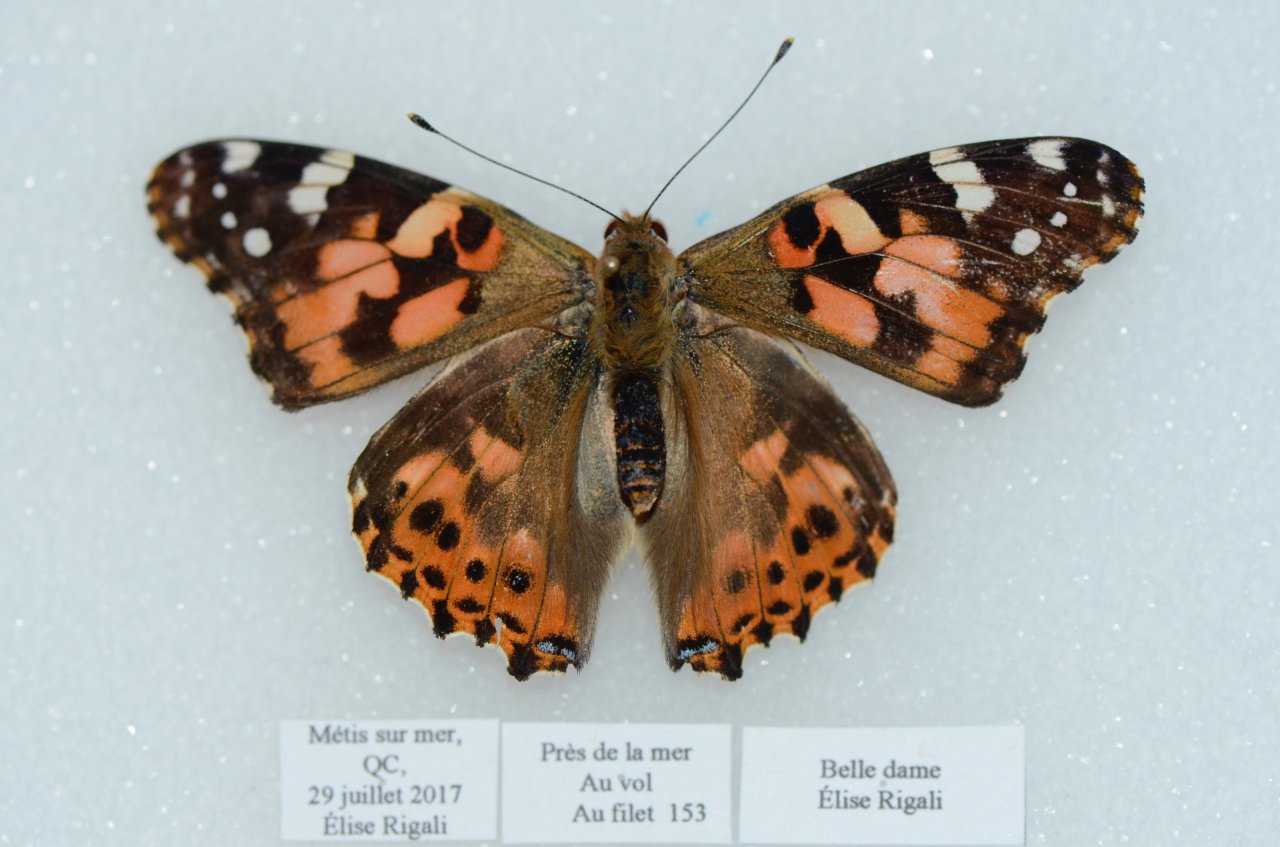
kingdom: Animalia
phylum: Arthropoda
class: Insecta
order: Lepidoptera
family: Nymphalidae
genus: Vanessa
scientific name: Vanessa cardui
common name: Painted Lady
